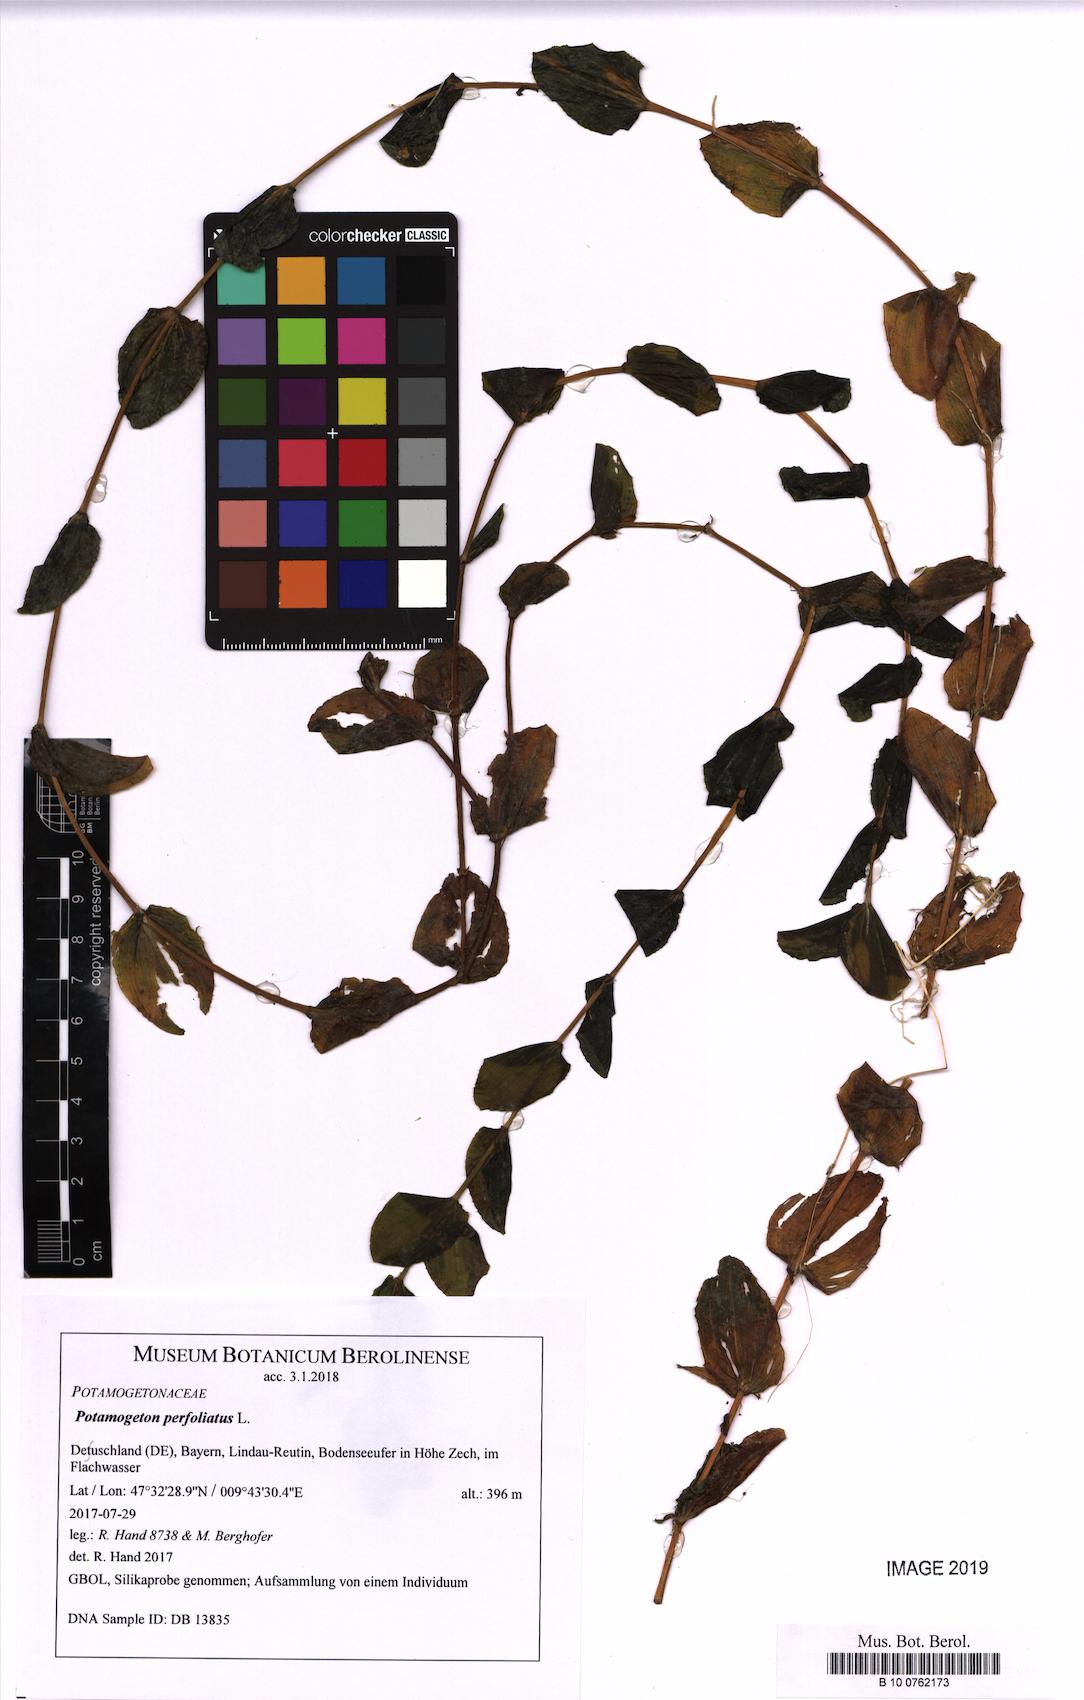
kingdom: Plantae
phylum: Tracheophyta
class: Liliopsida
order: Alismatales
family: Potamogetonaceae
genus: Potamogeton
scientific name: Potamogeton perfoliatus
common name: Perfoliate pondweed
